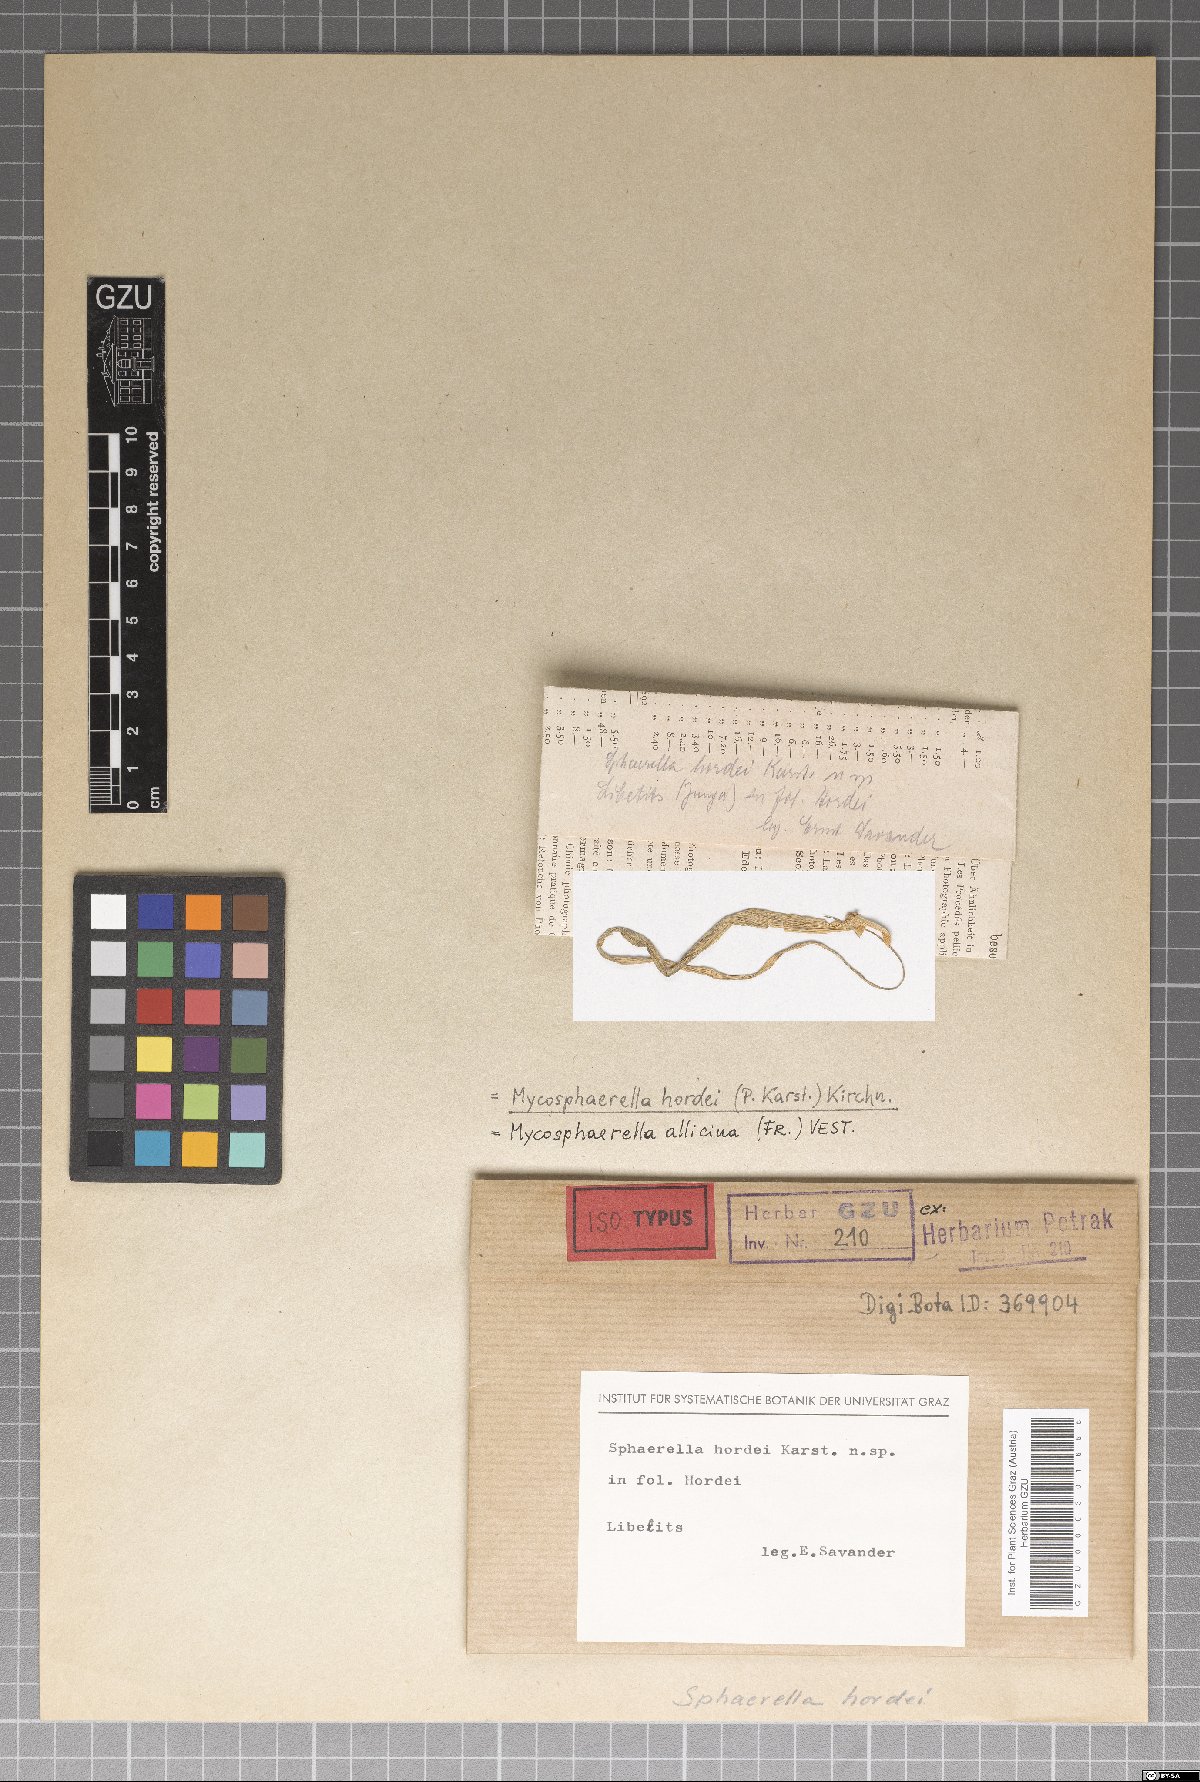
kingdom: Fungi
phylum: Ascomycota
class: Dothideomycetes
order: Mycosphaerellales
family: Mycosphaerellaceae
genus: Mycosphaerella
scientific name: Mycosphaerella hordei
